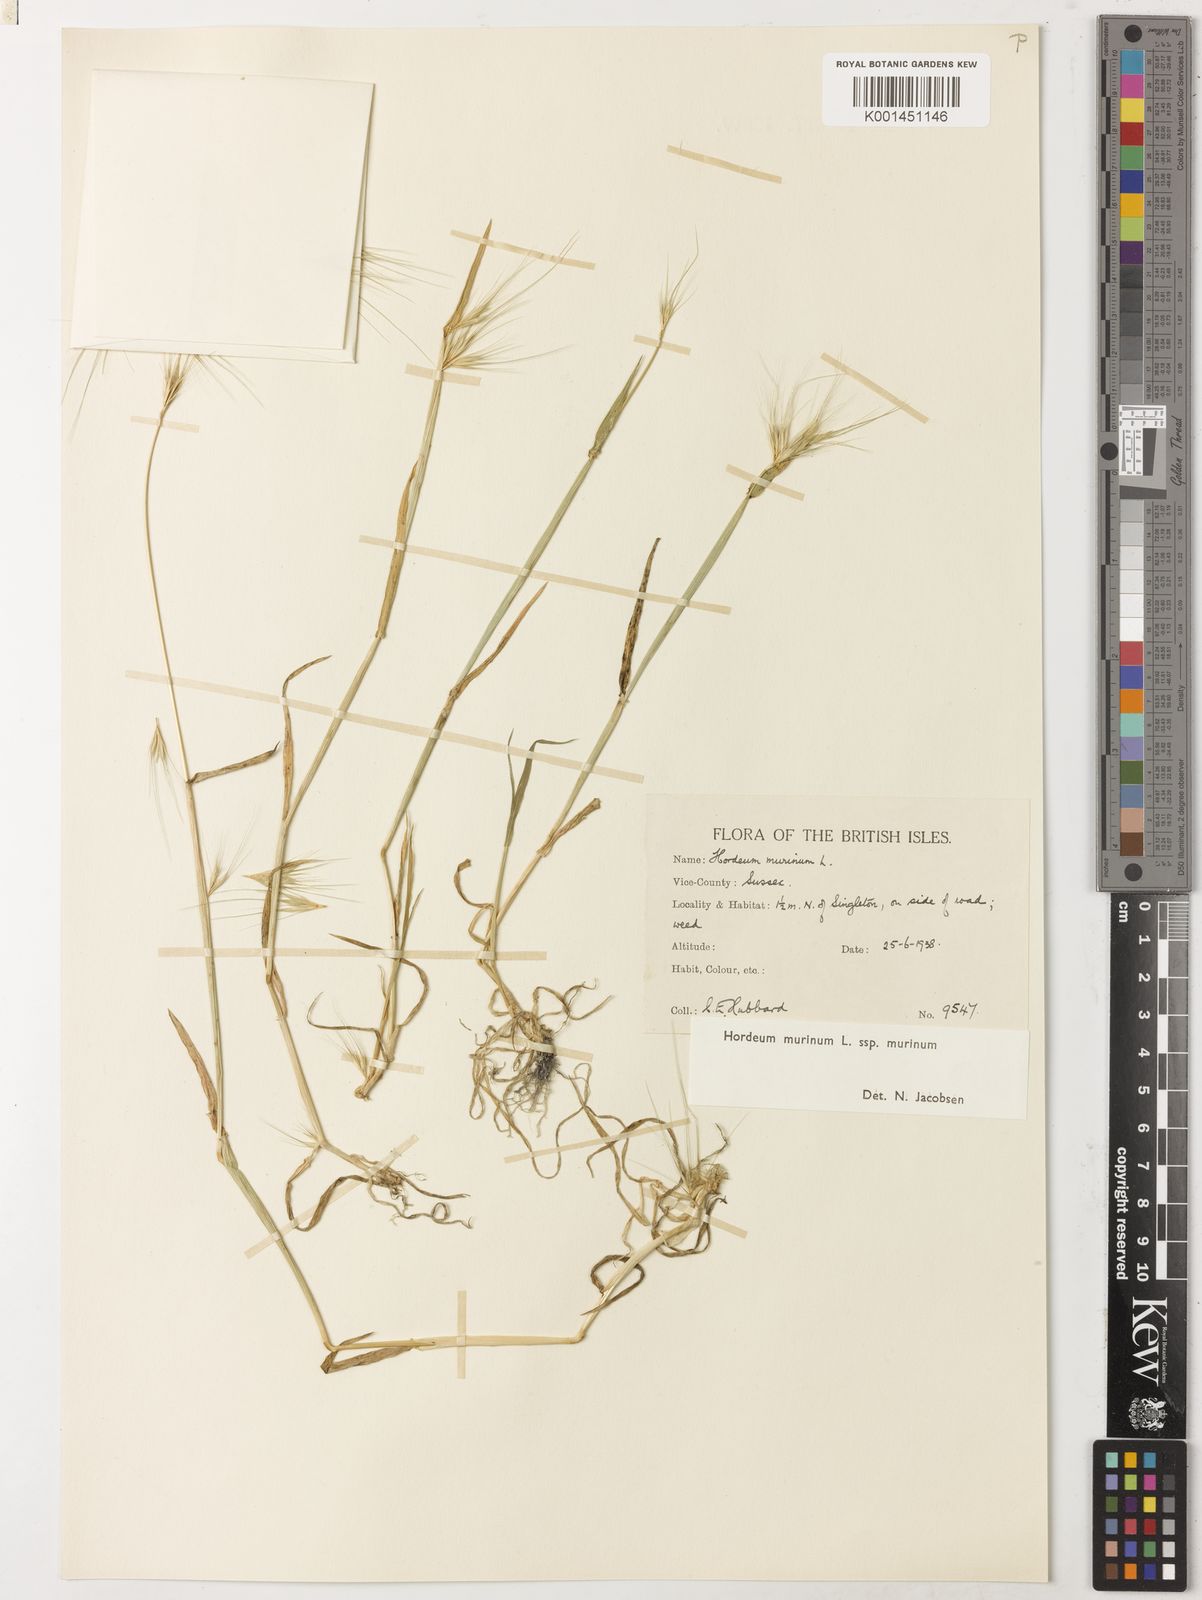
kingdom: Plantae
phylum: Tracheophyta
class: Liliopsida
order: Poales
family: Poaceae
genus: Hordeum
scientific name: Hordeum murinum
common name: Wall barley
